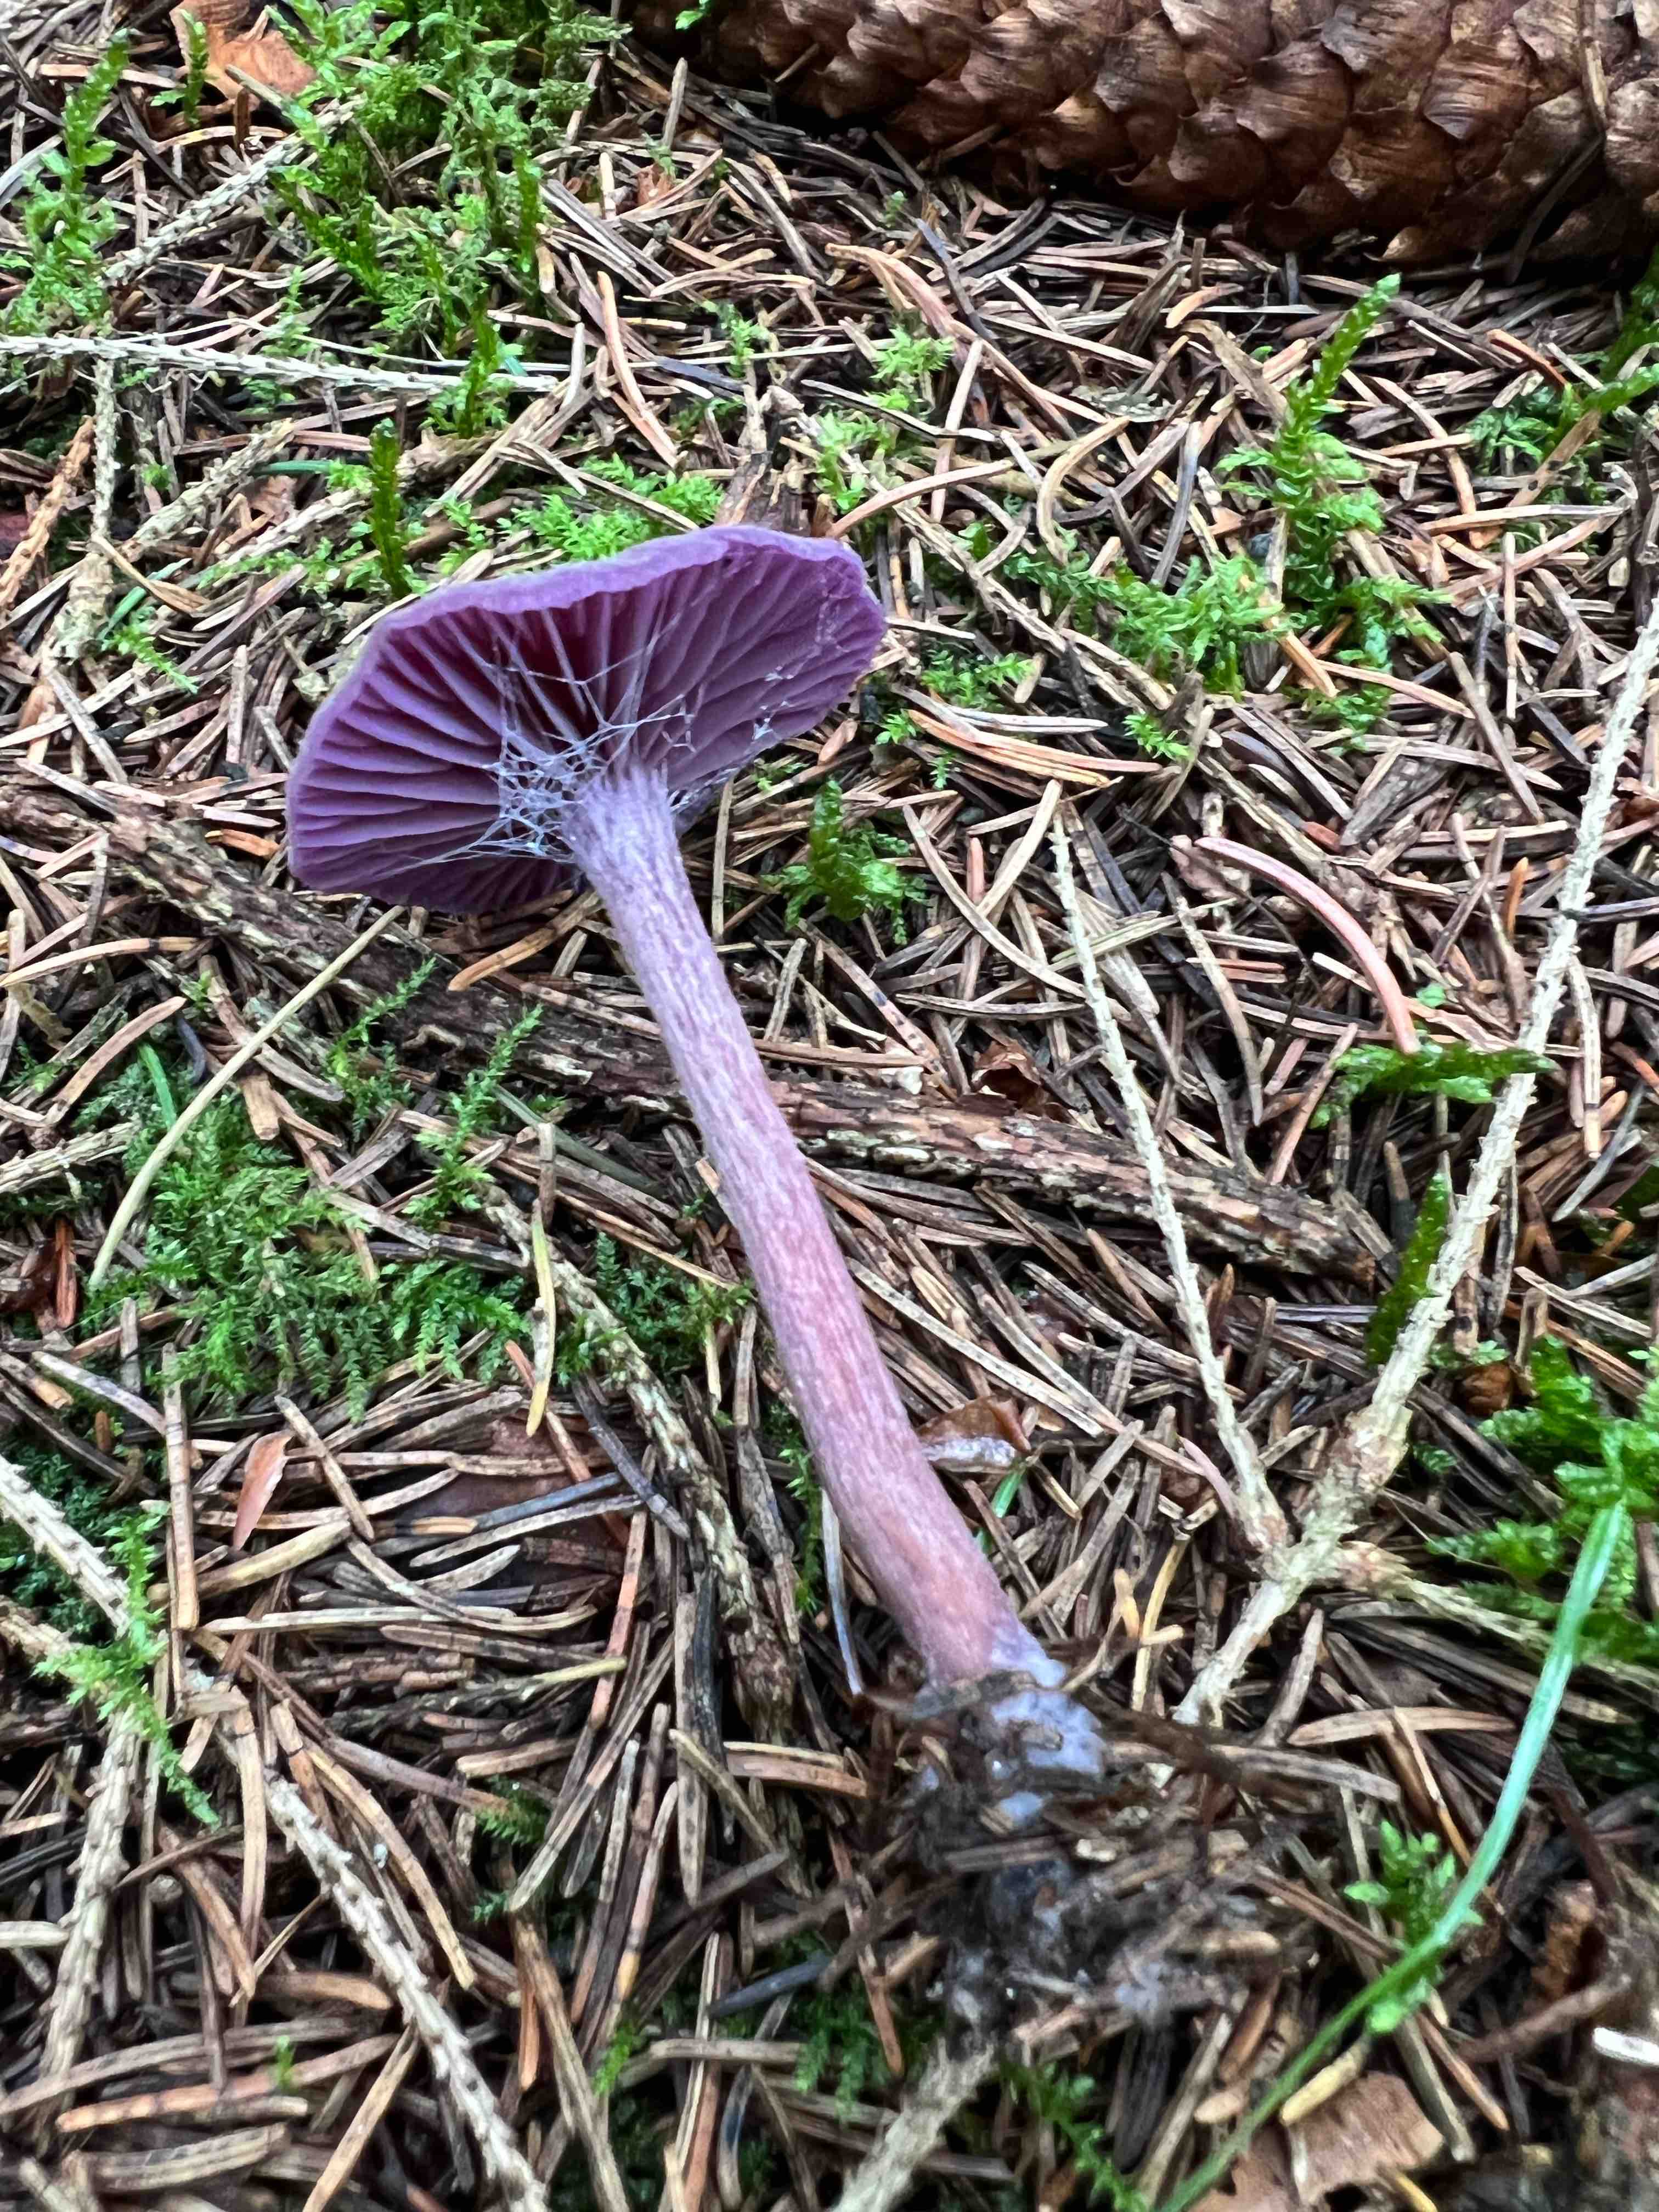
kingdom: Fungi
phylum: Basidiomycota
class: Agaricomycetes
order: Agaricales
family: Hydnangiaceae
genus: Laccaria
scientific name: Laccaria amethystina
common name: violet ametysthat
